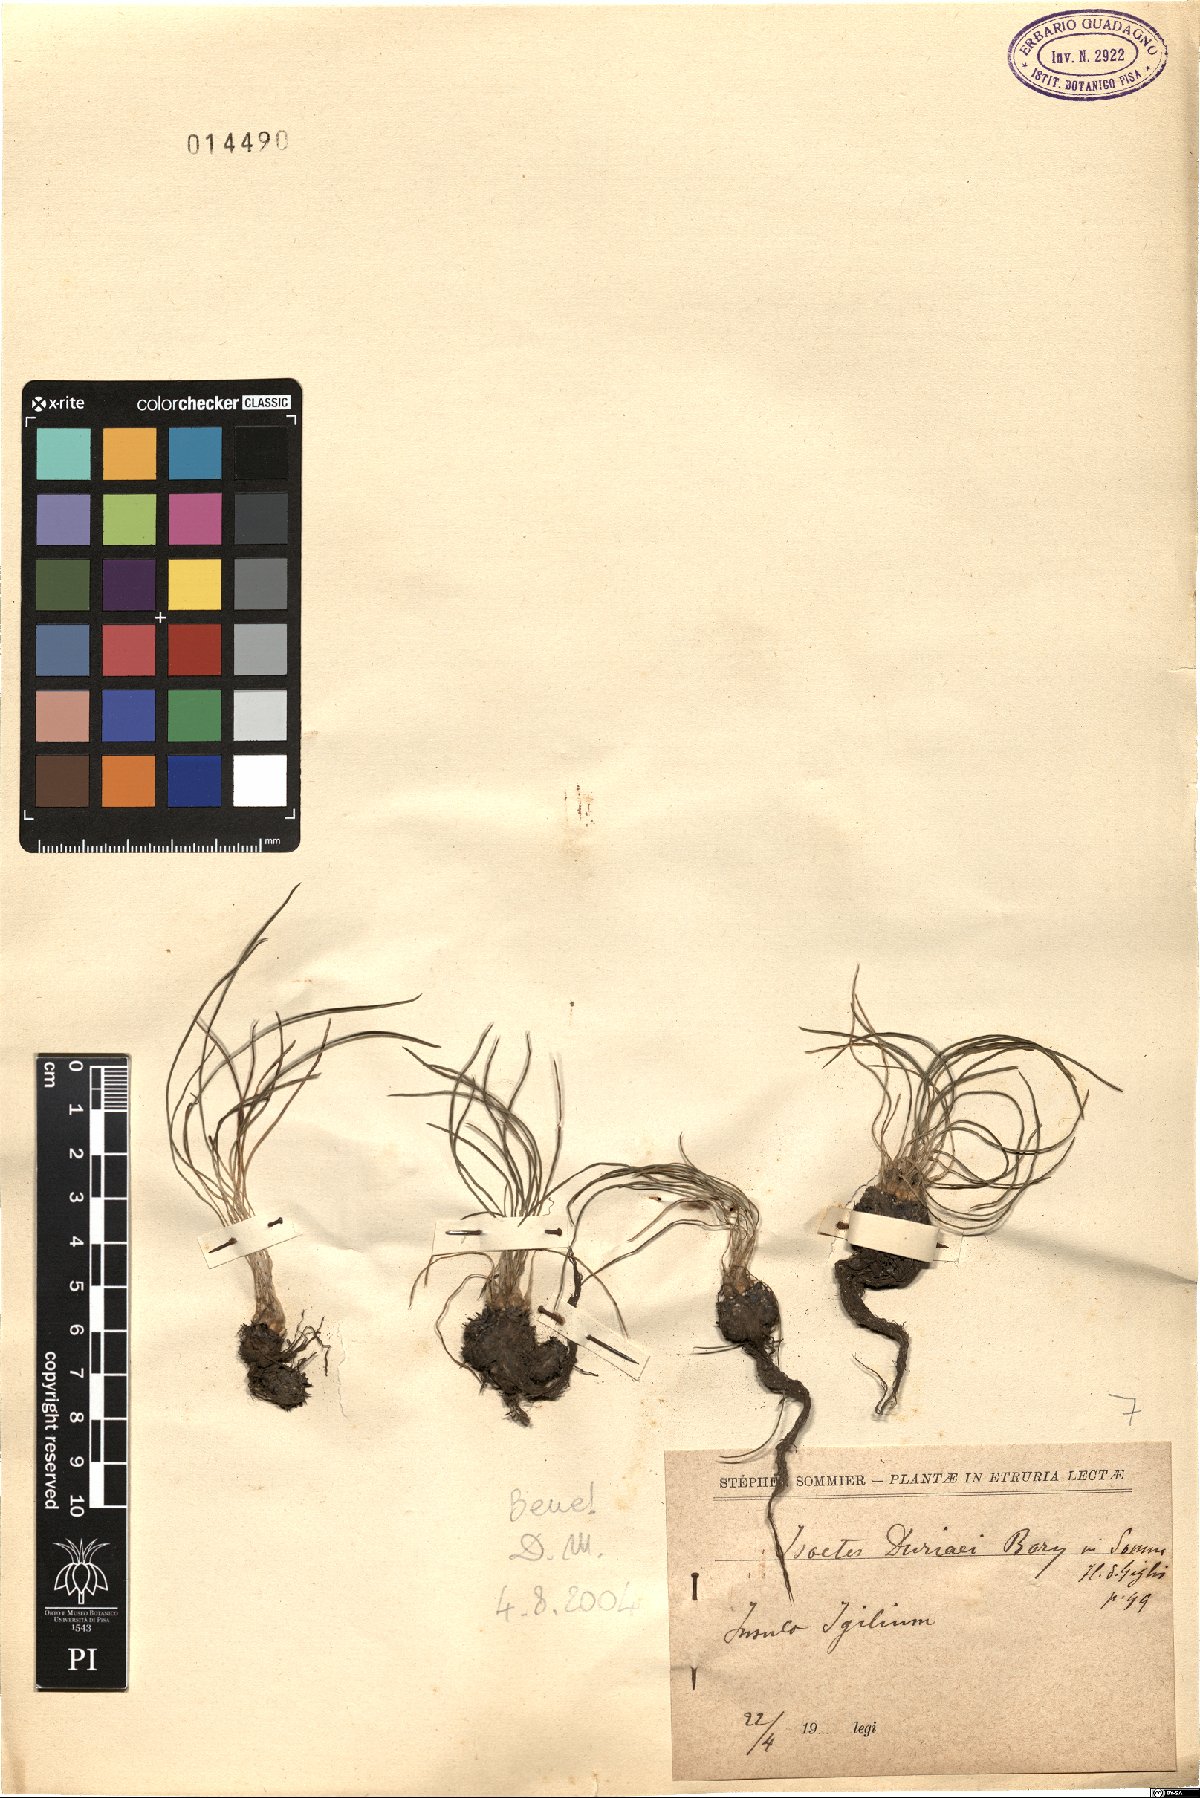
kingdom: Plantae
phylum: Tracheophyta
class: Lycopodiopsida
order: Isoetales
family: Isoetaceae
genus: Isoetes
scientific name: Isoetes duriei
